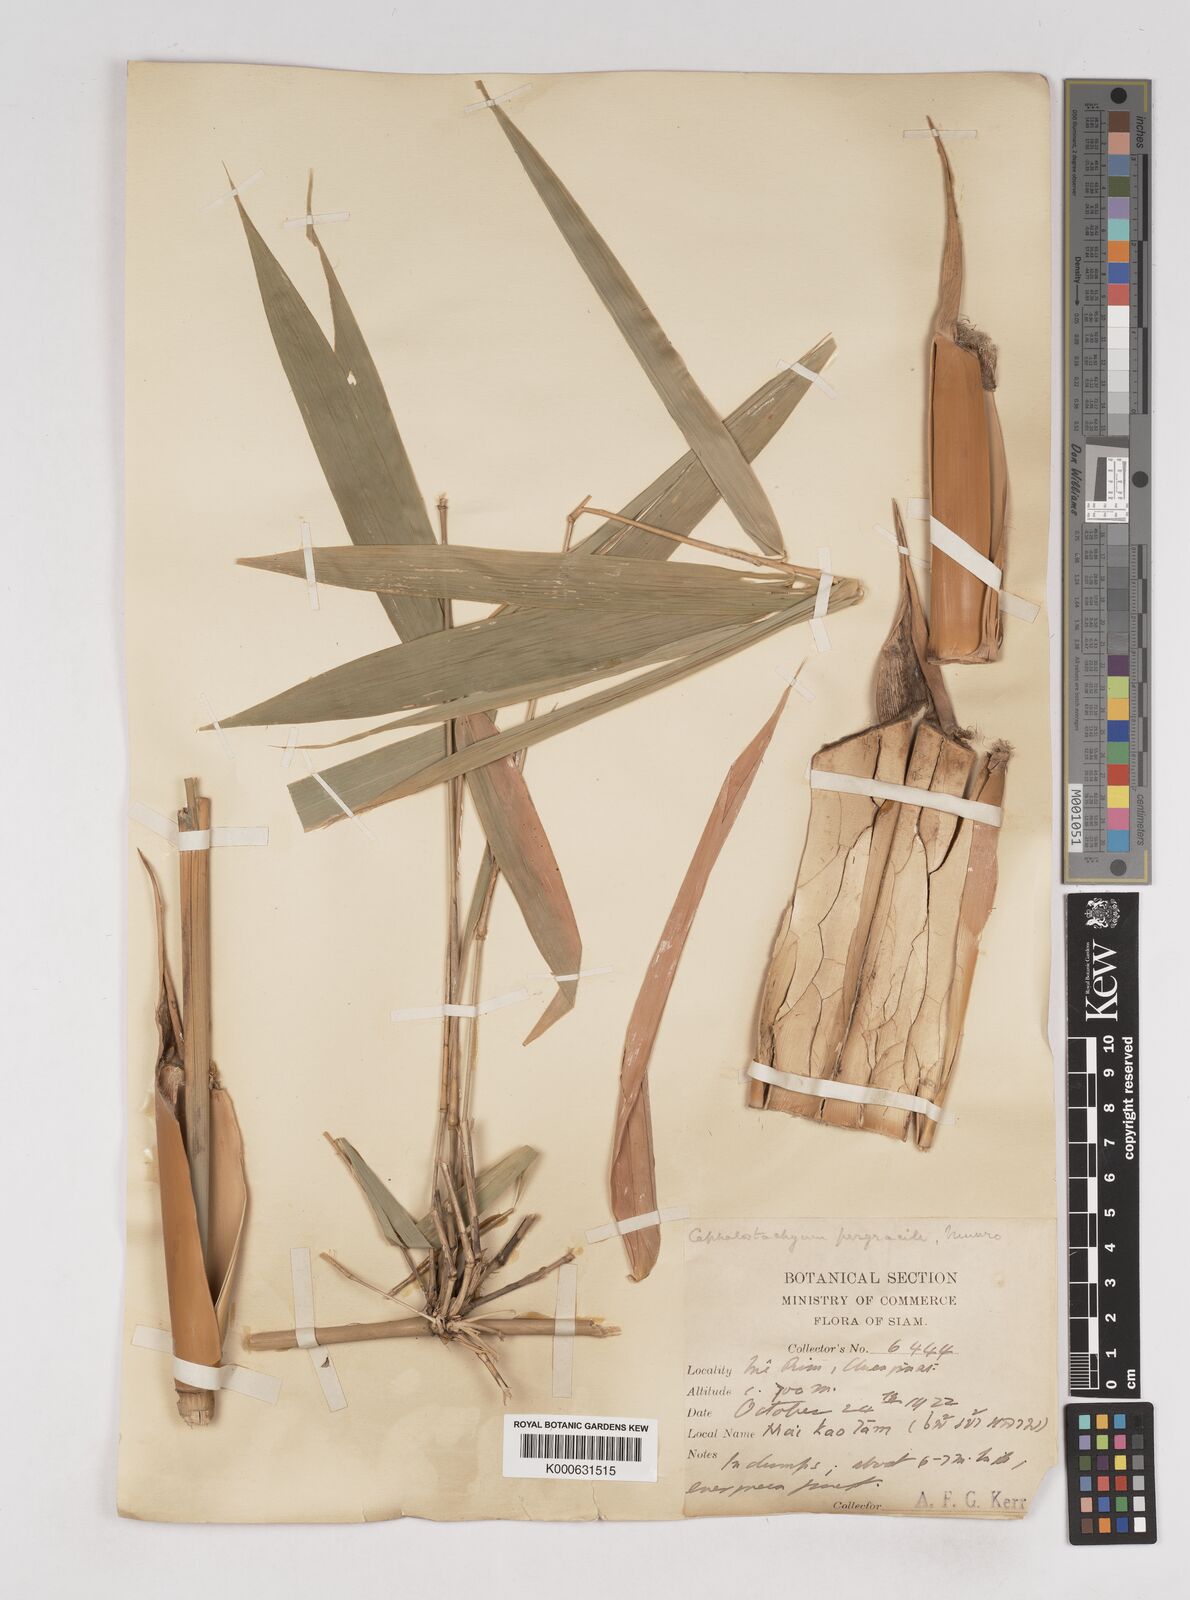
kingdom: Plantae
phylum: Tracheophyta
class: Liliopsida
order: Poales
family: Poaceae
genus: Schizostachyum
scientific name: Schizostachyum pergracile
